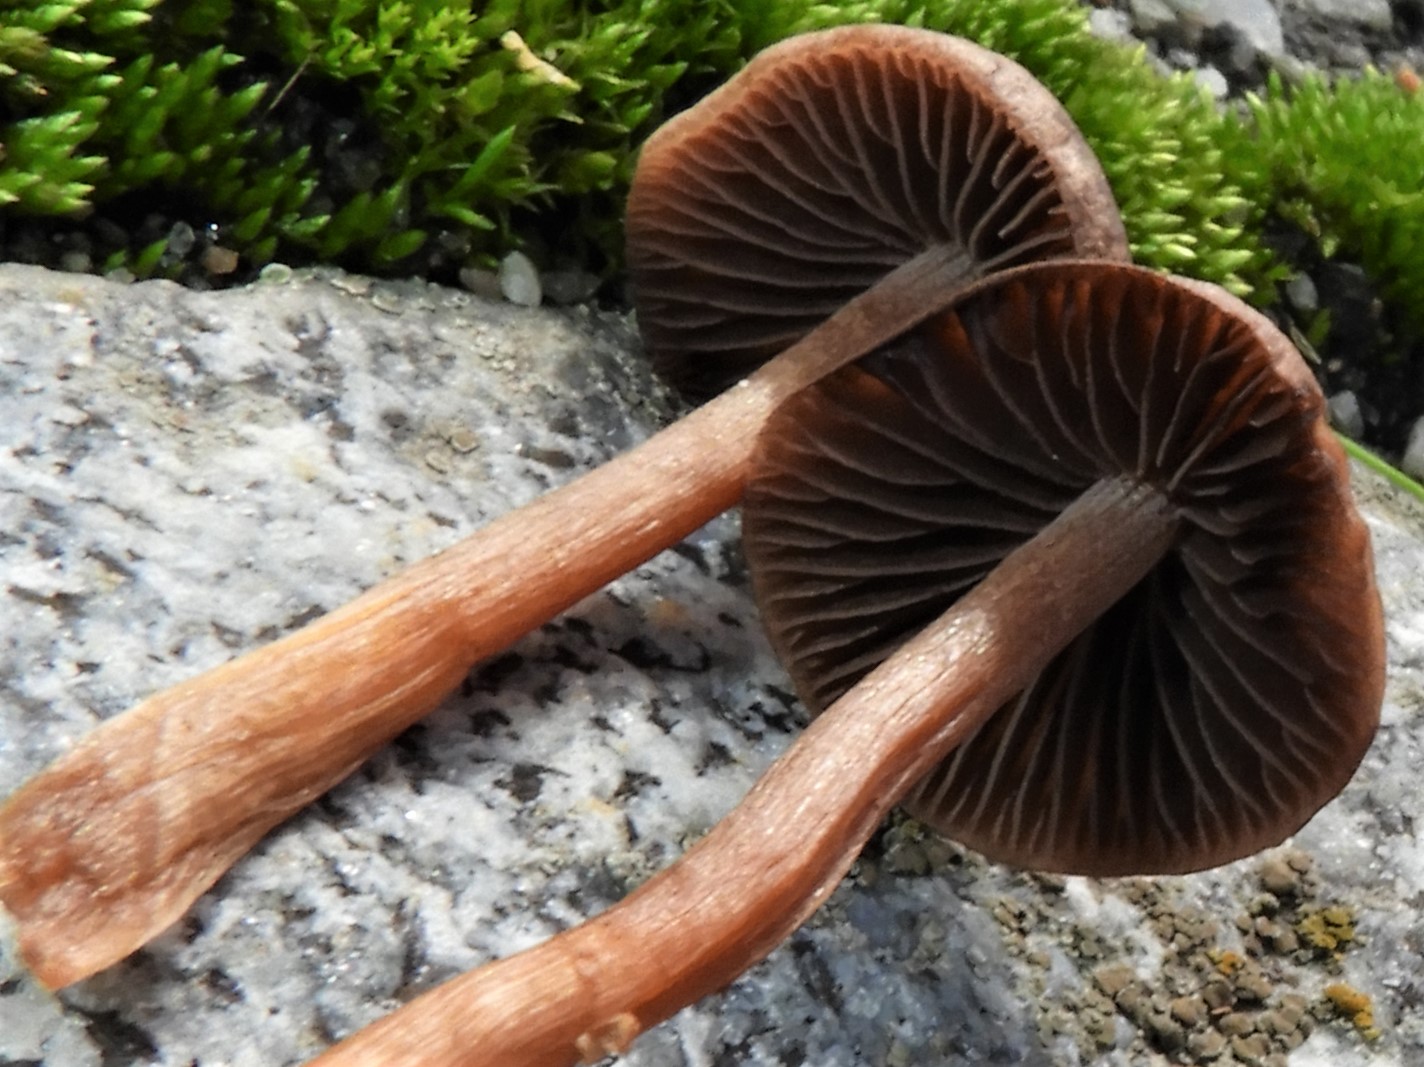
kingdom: Fungi
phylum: Basidiomycota
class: Agaricomycetes
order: Agaricales
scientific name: Agaricales
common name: champignonordenen
